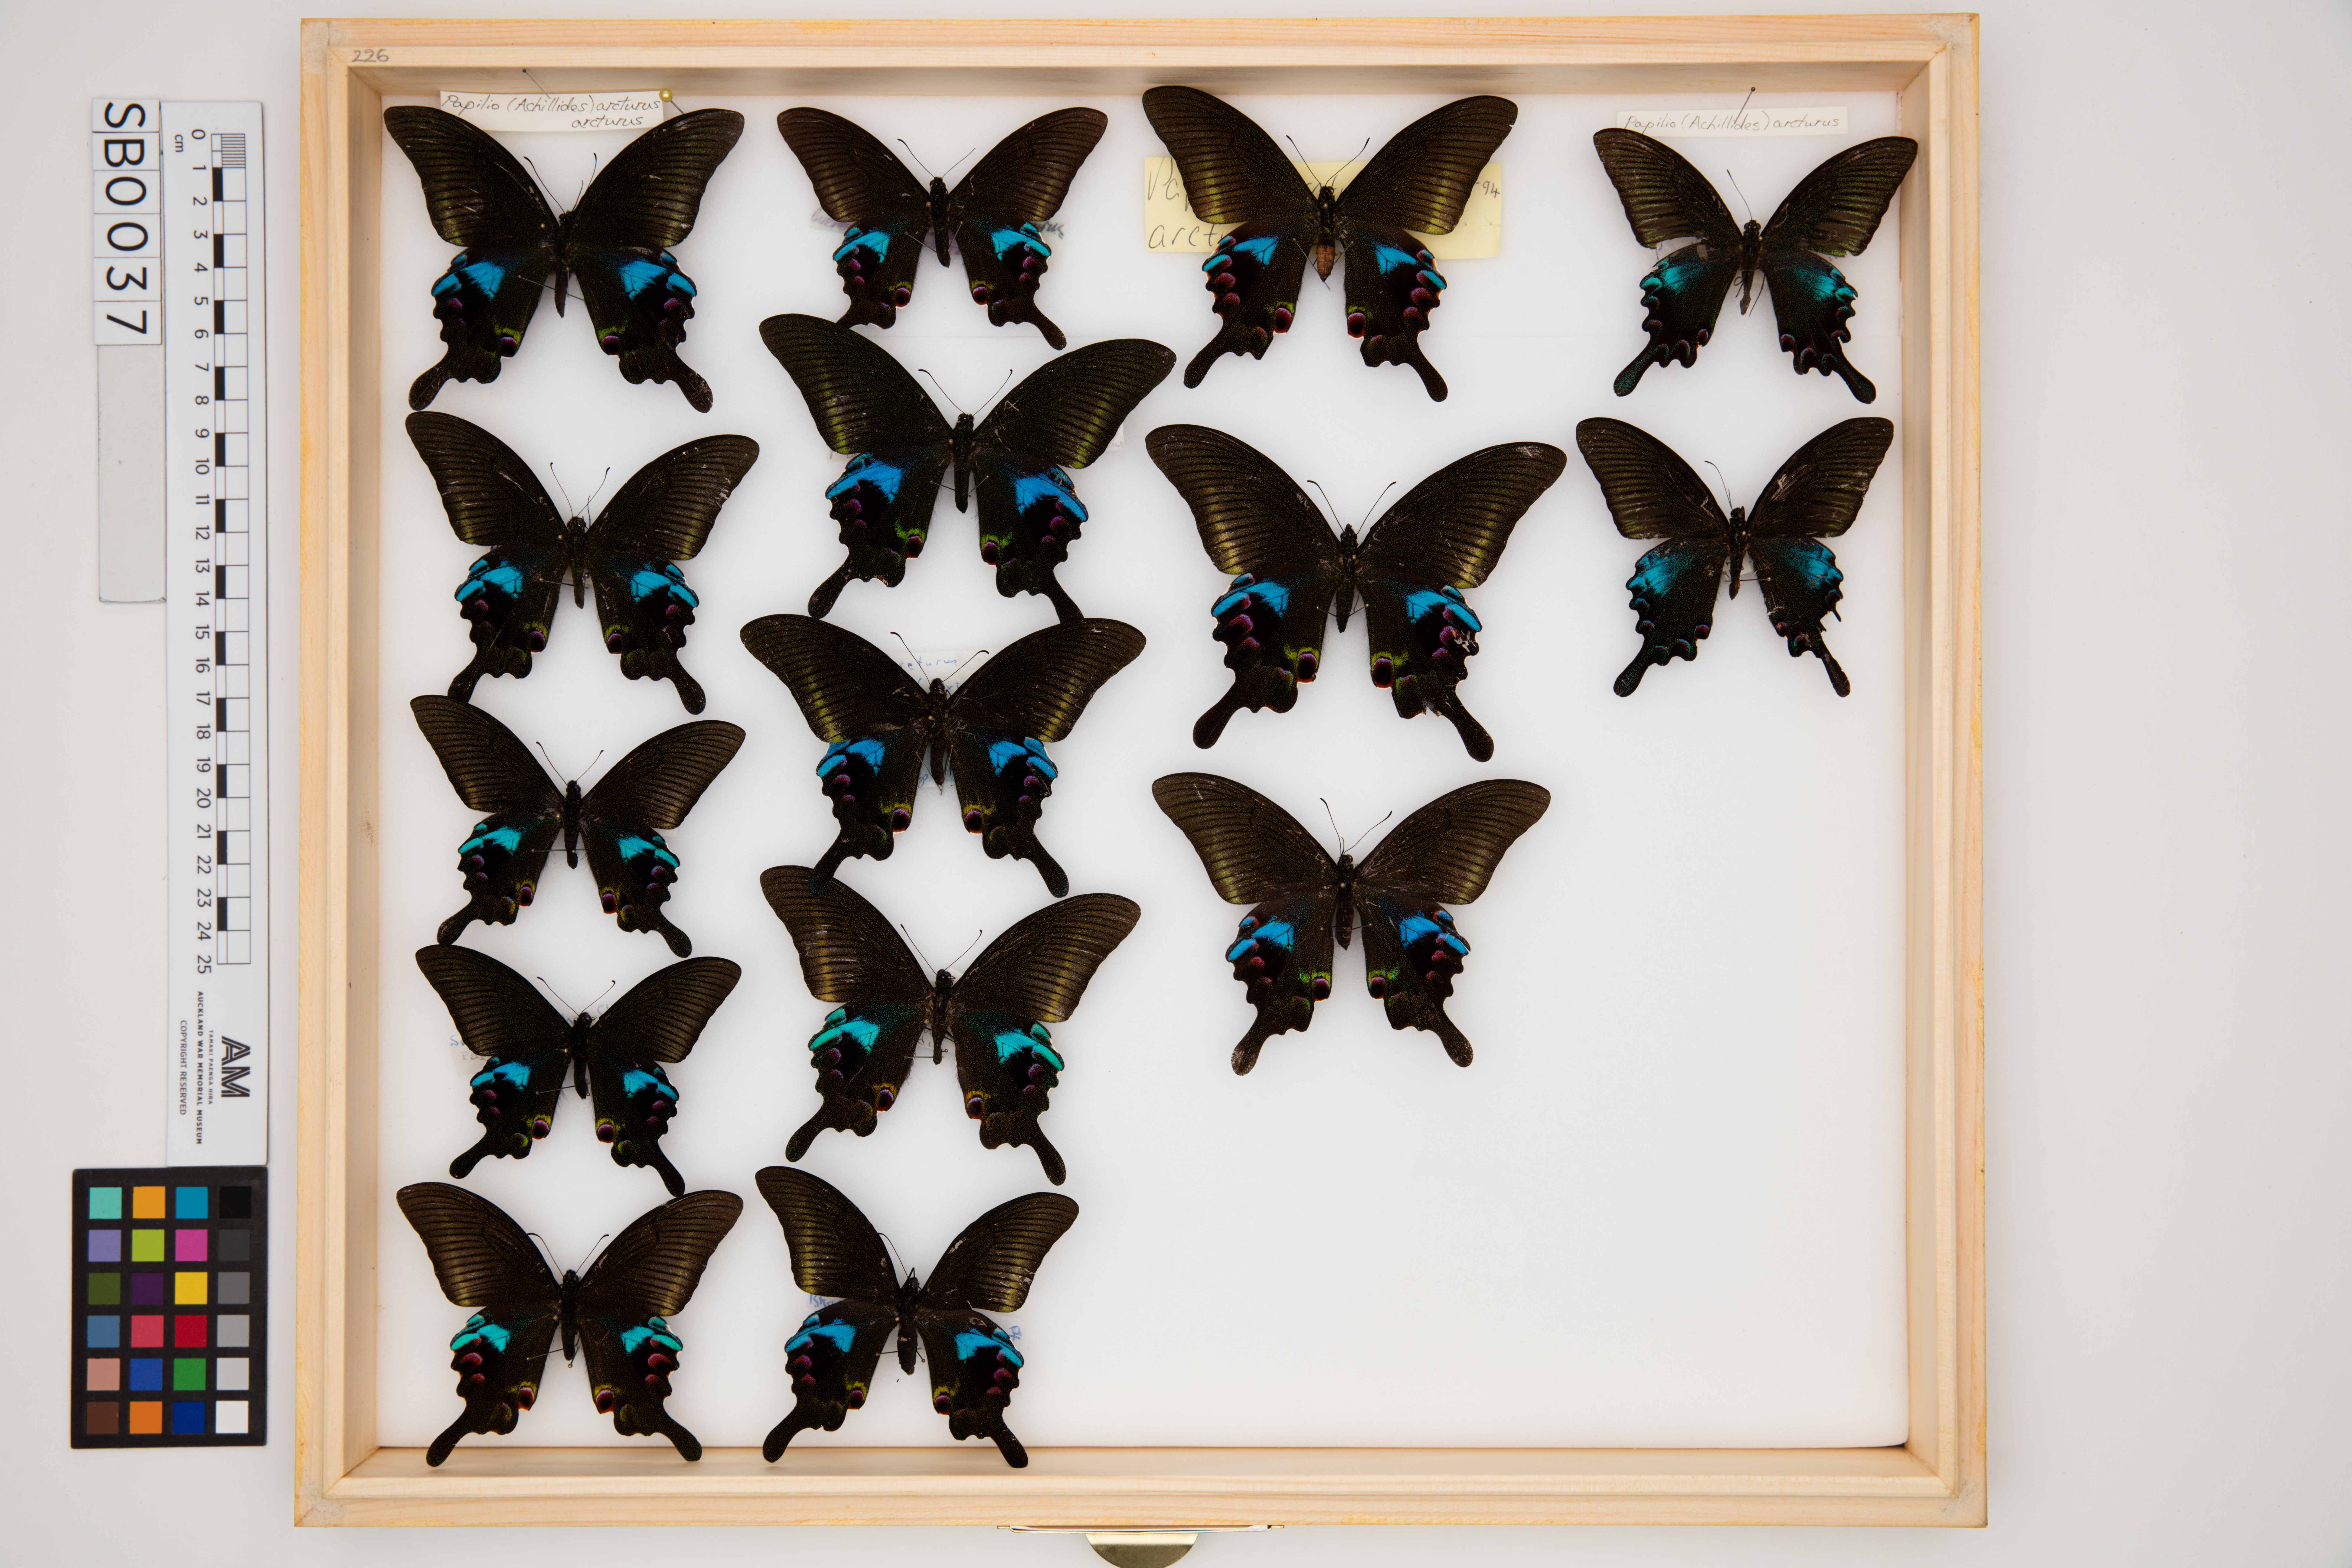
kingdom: Animalia
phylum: Arthropoda
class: Insecta
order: Lepidoptera
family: Papilionidae
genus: Papilio
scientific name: Papilio arcturus
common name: Blue peacock
